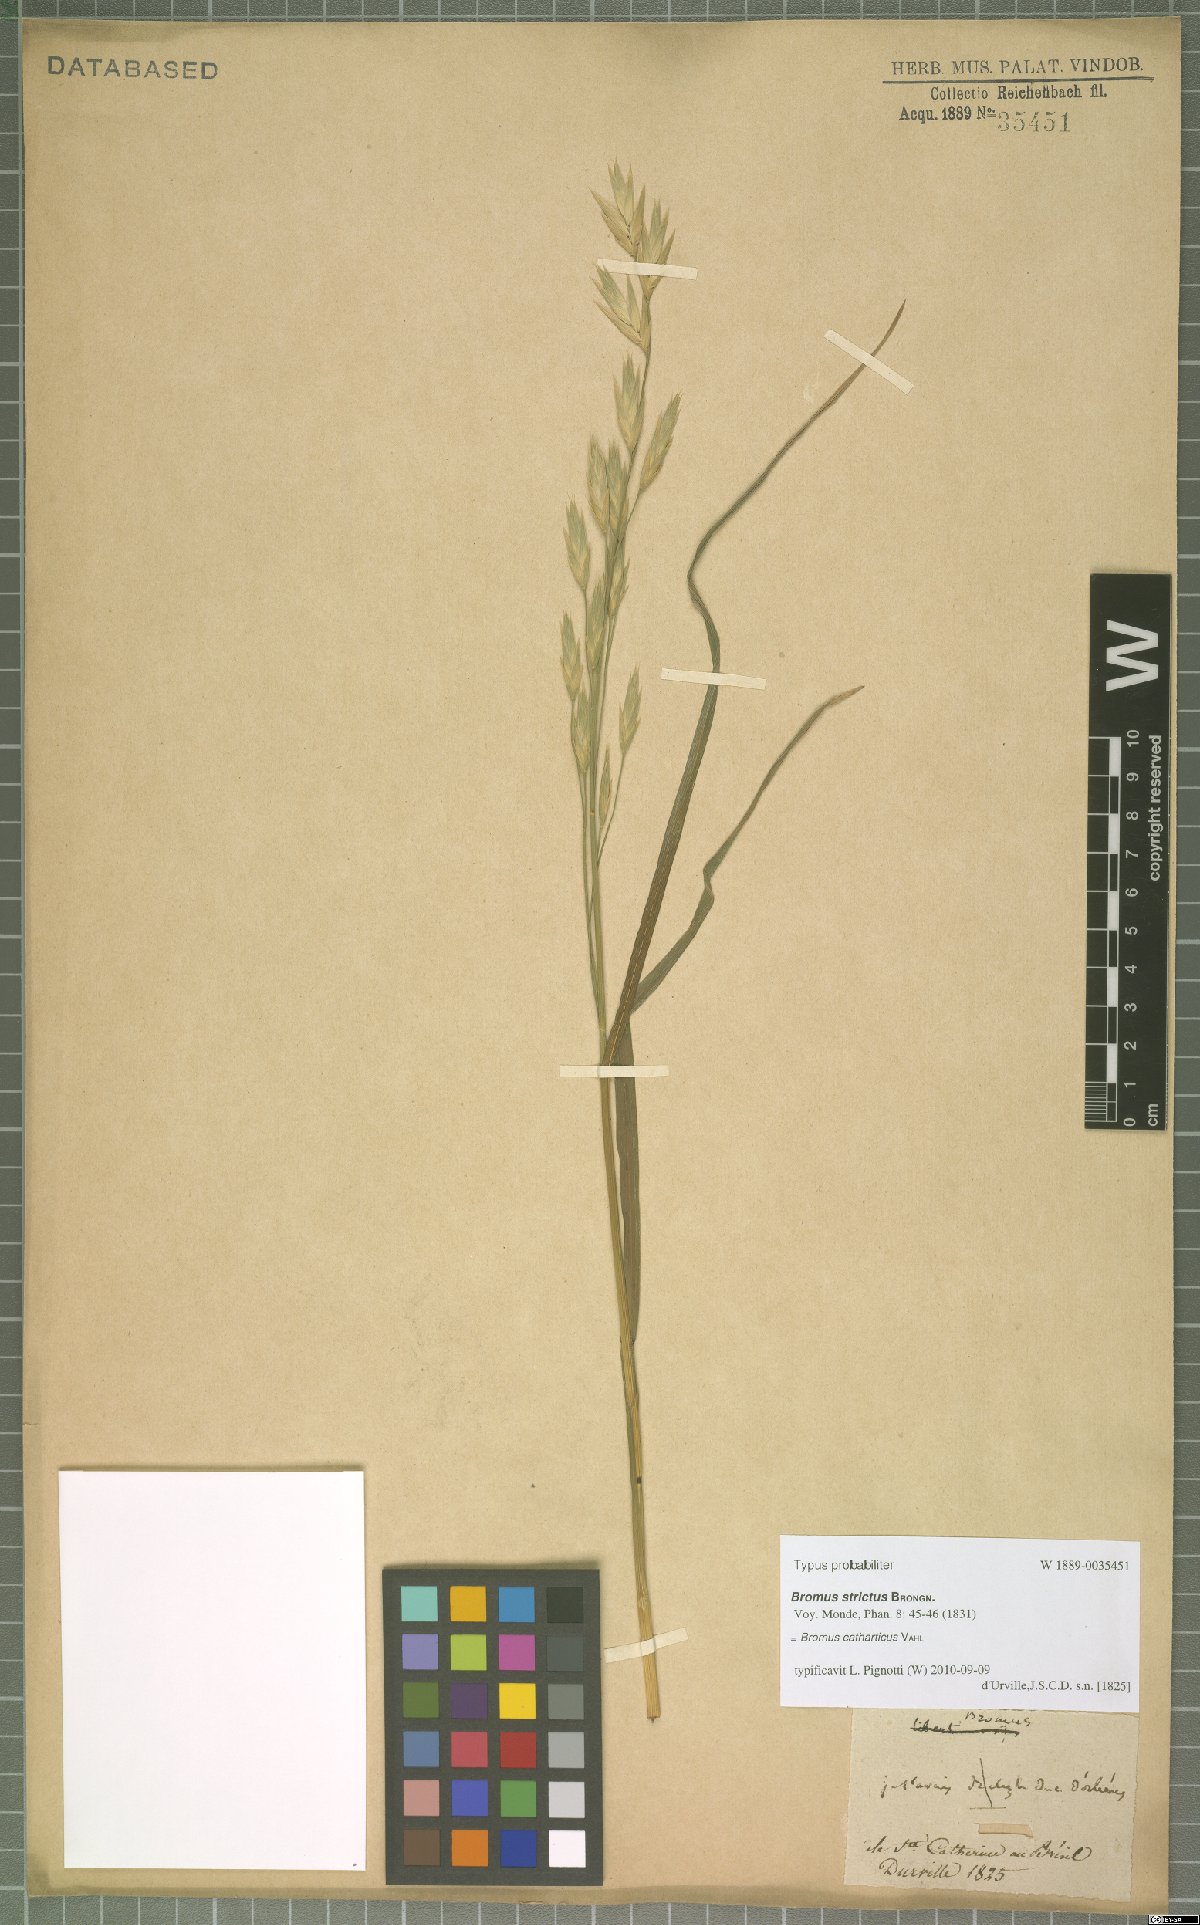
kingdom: Plantae
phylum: Tracheophyta
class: Liliopsida
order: Poales
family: Poaceae
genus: Bromus
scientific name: Bromus catharticus
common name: Rescuegrass
